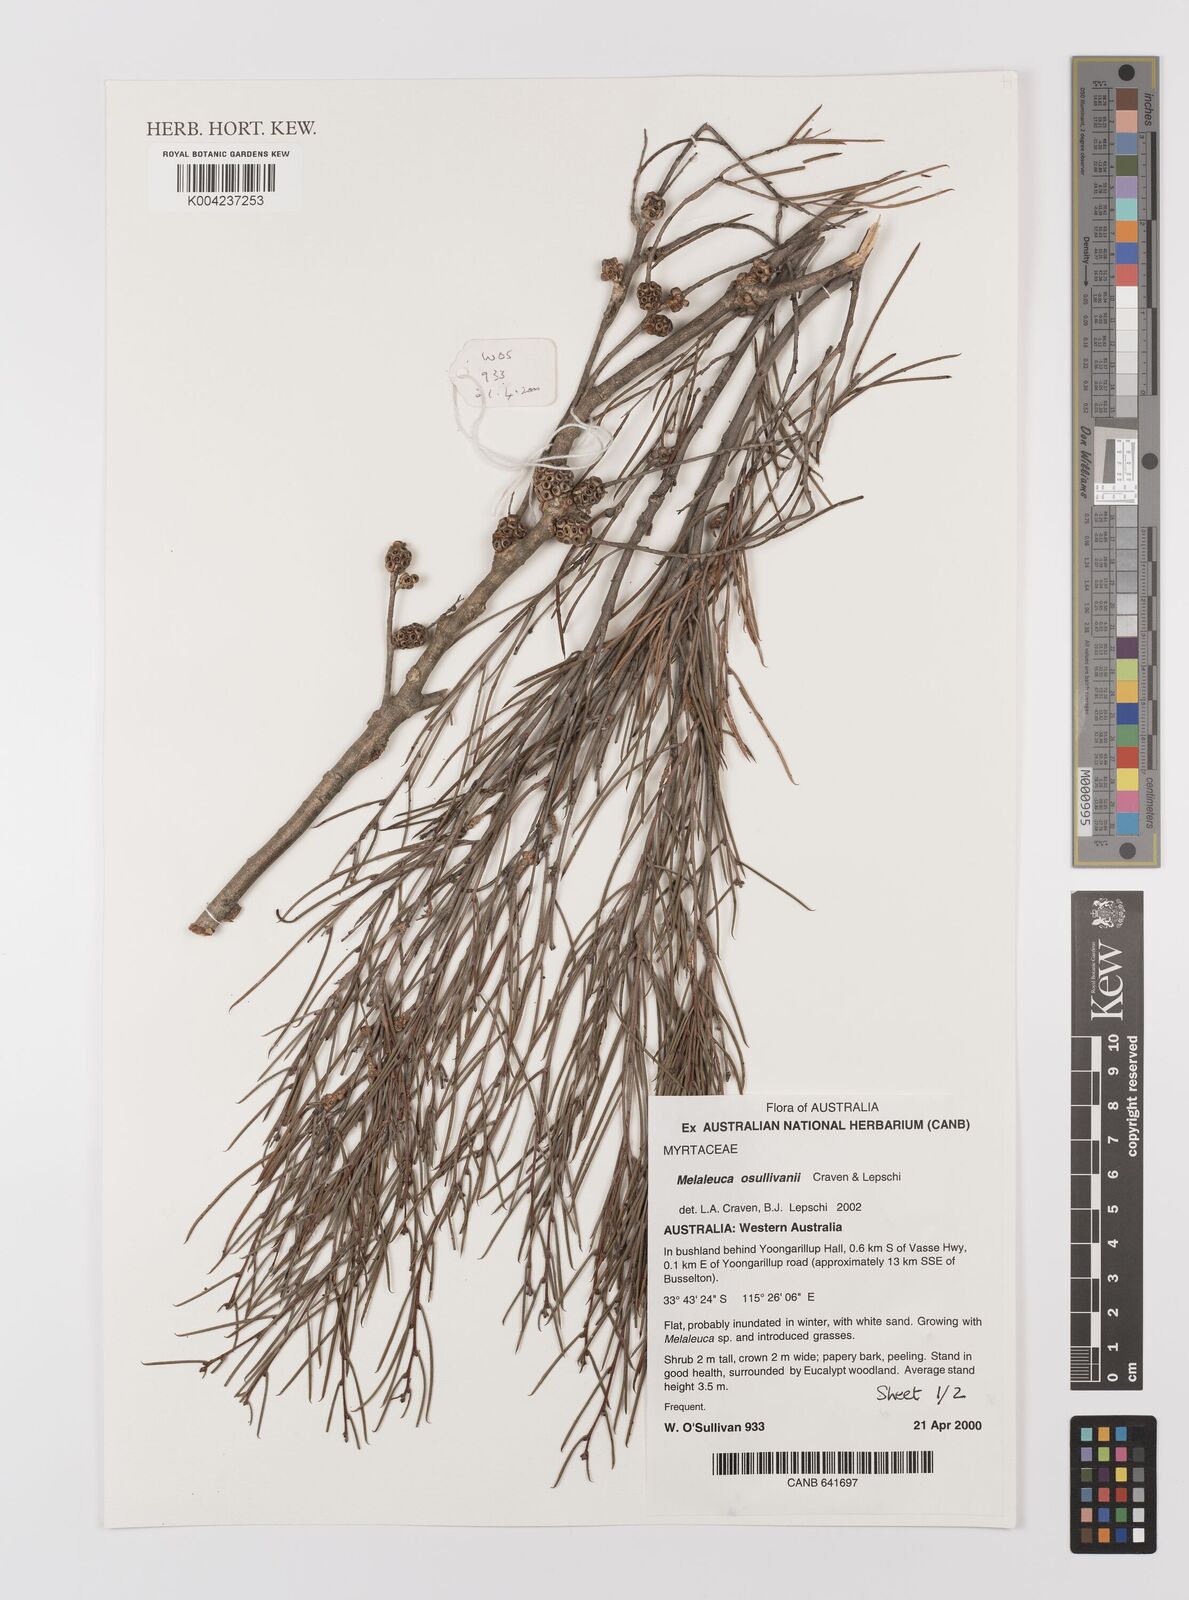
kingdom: Plantae
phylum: Tracheophyta
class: Magnoliopsida
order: Myrtales
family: Myrtaceae
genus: Melaleuca
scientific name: Melaleuca osullivanii
